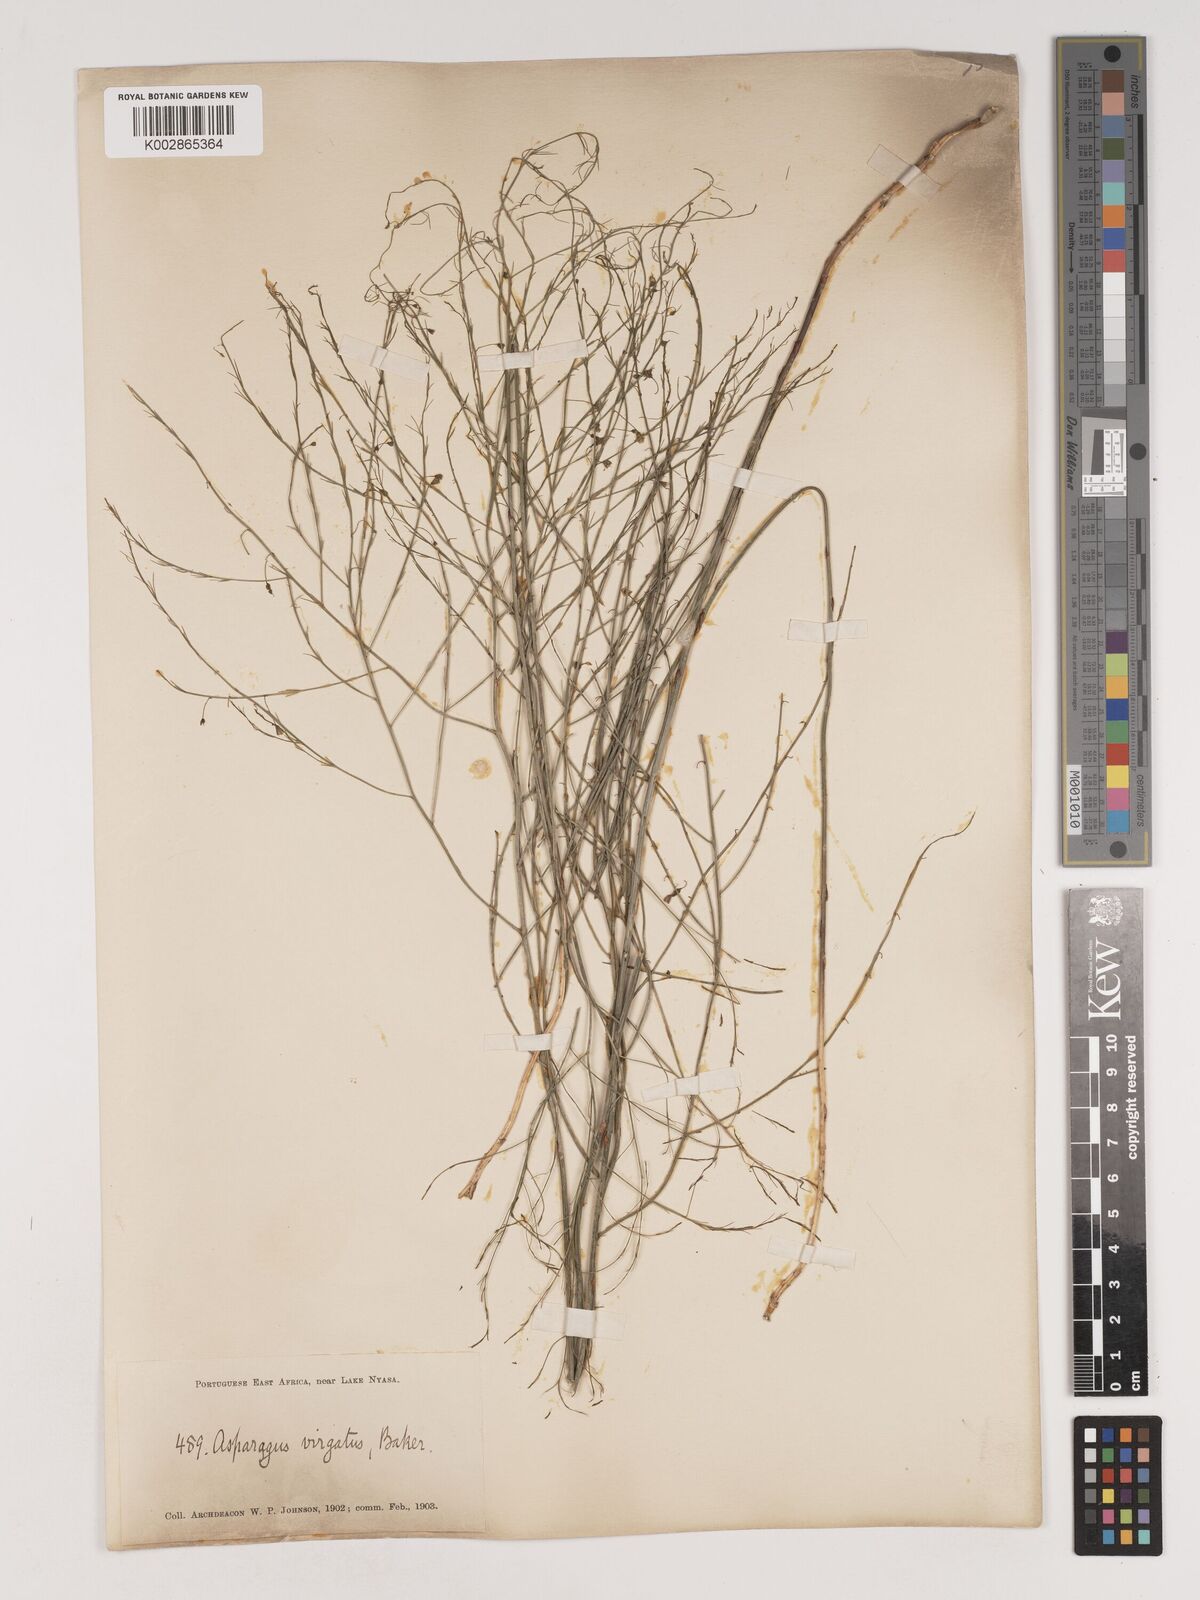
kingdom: Plantae
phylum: Tracheophyta
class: Liliopsida
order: Asparagales
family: Asparagaceae
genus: Asparagus
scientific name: Asparagus virgatus
